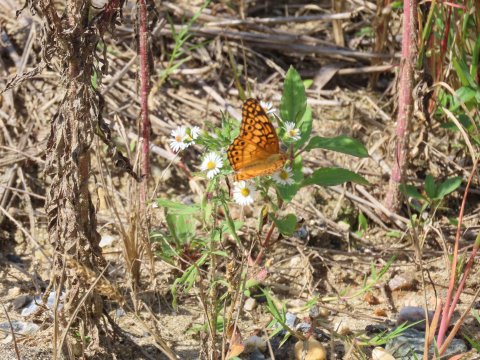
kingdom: Animalia
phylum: Arthropoda
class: Insecta
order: Lepidoptera
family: Nymphalidae
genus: Euptoieta
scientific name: Euptoieta claudia
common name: Variegated Fritillary
